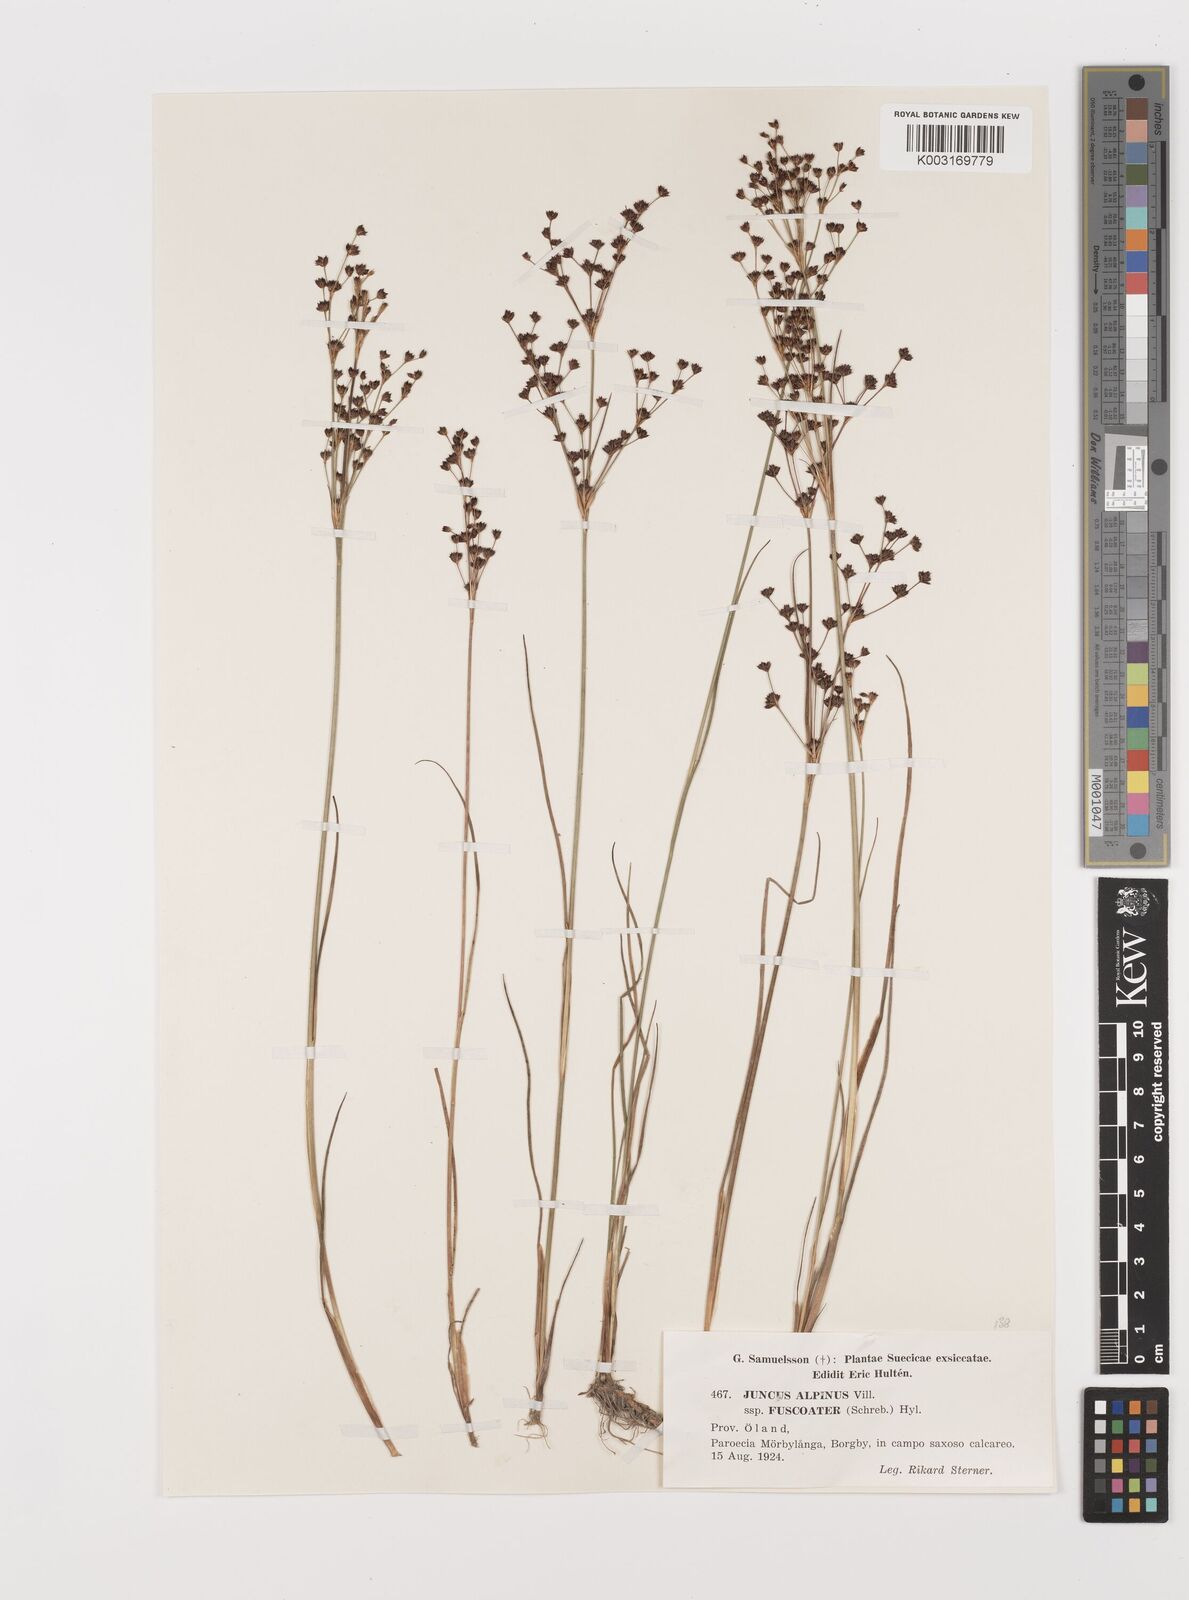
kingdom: Plantae
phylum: Tracheophyta
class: Liliopsida
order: Poales
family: Juncaceae
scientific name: Juncaceae
